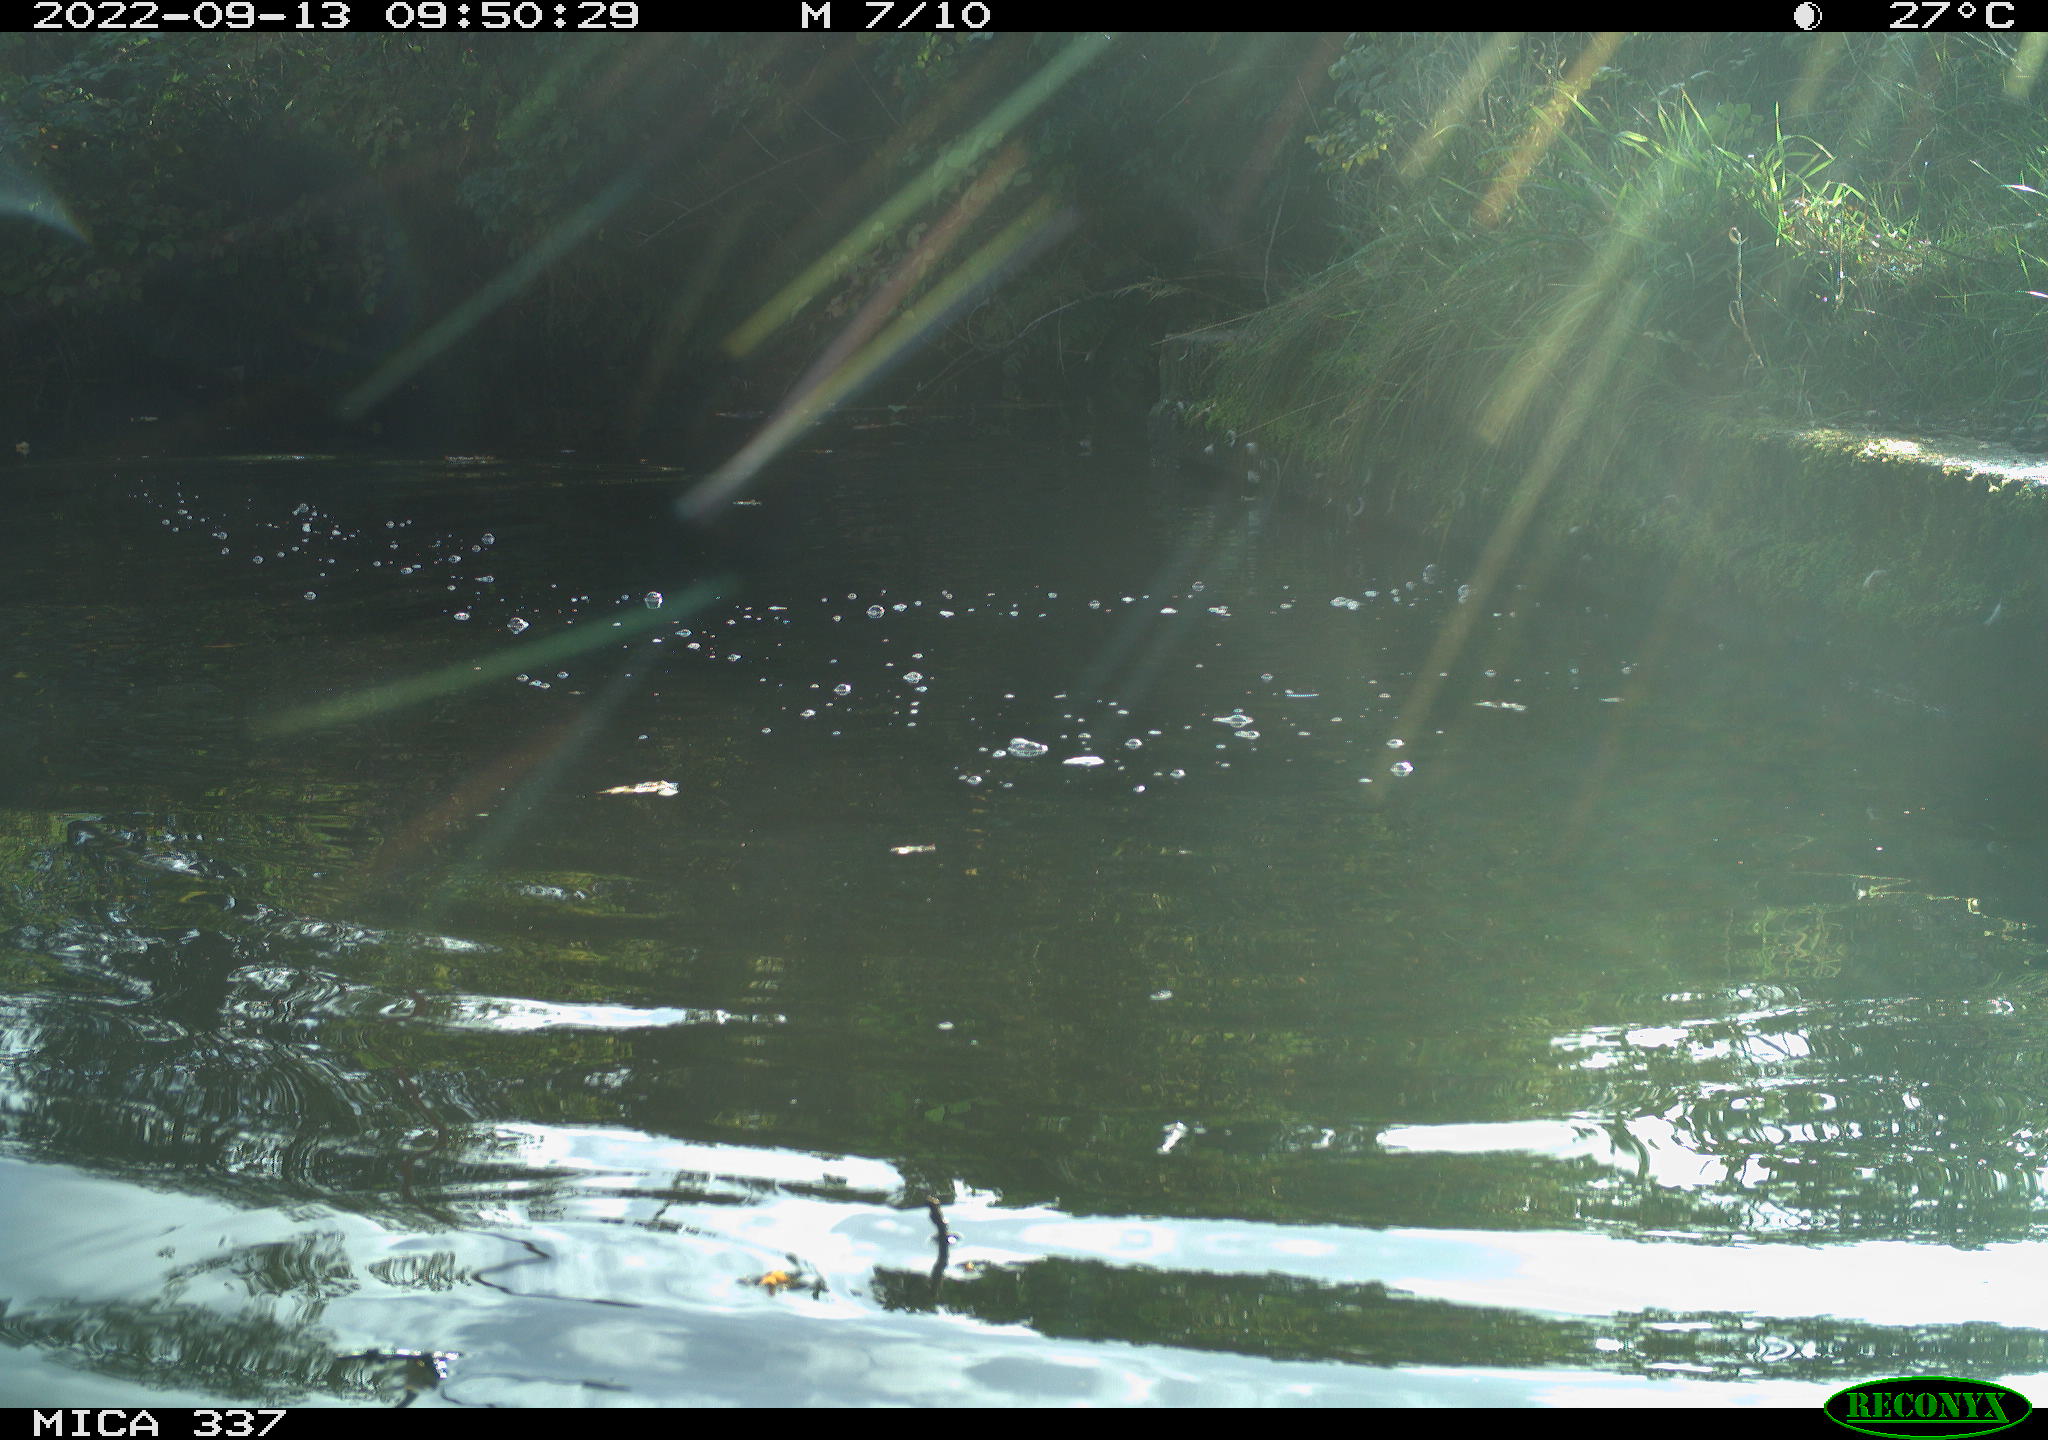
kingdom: Animalia
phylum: Chordata
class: Aves
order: Anseriformes
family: Anatidae
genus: Anas
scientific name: Anas platyrhynchos
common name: Mallard
